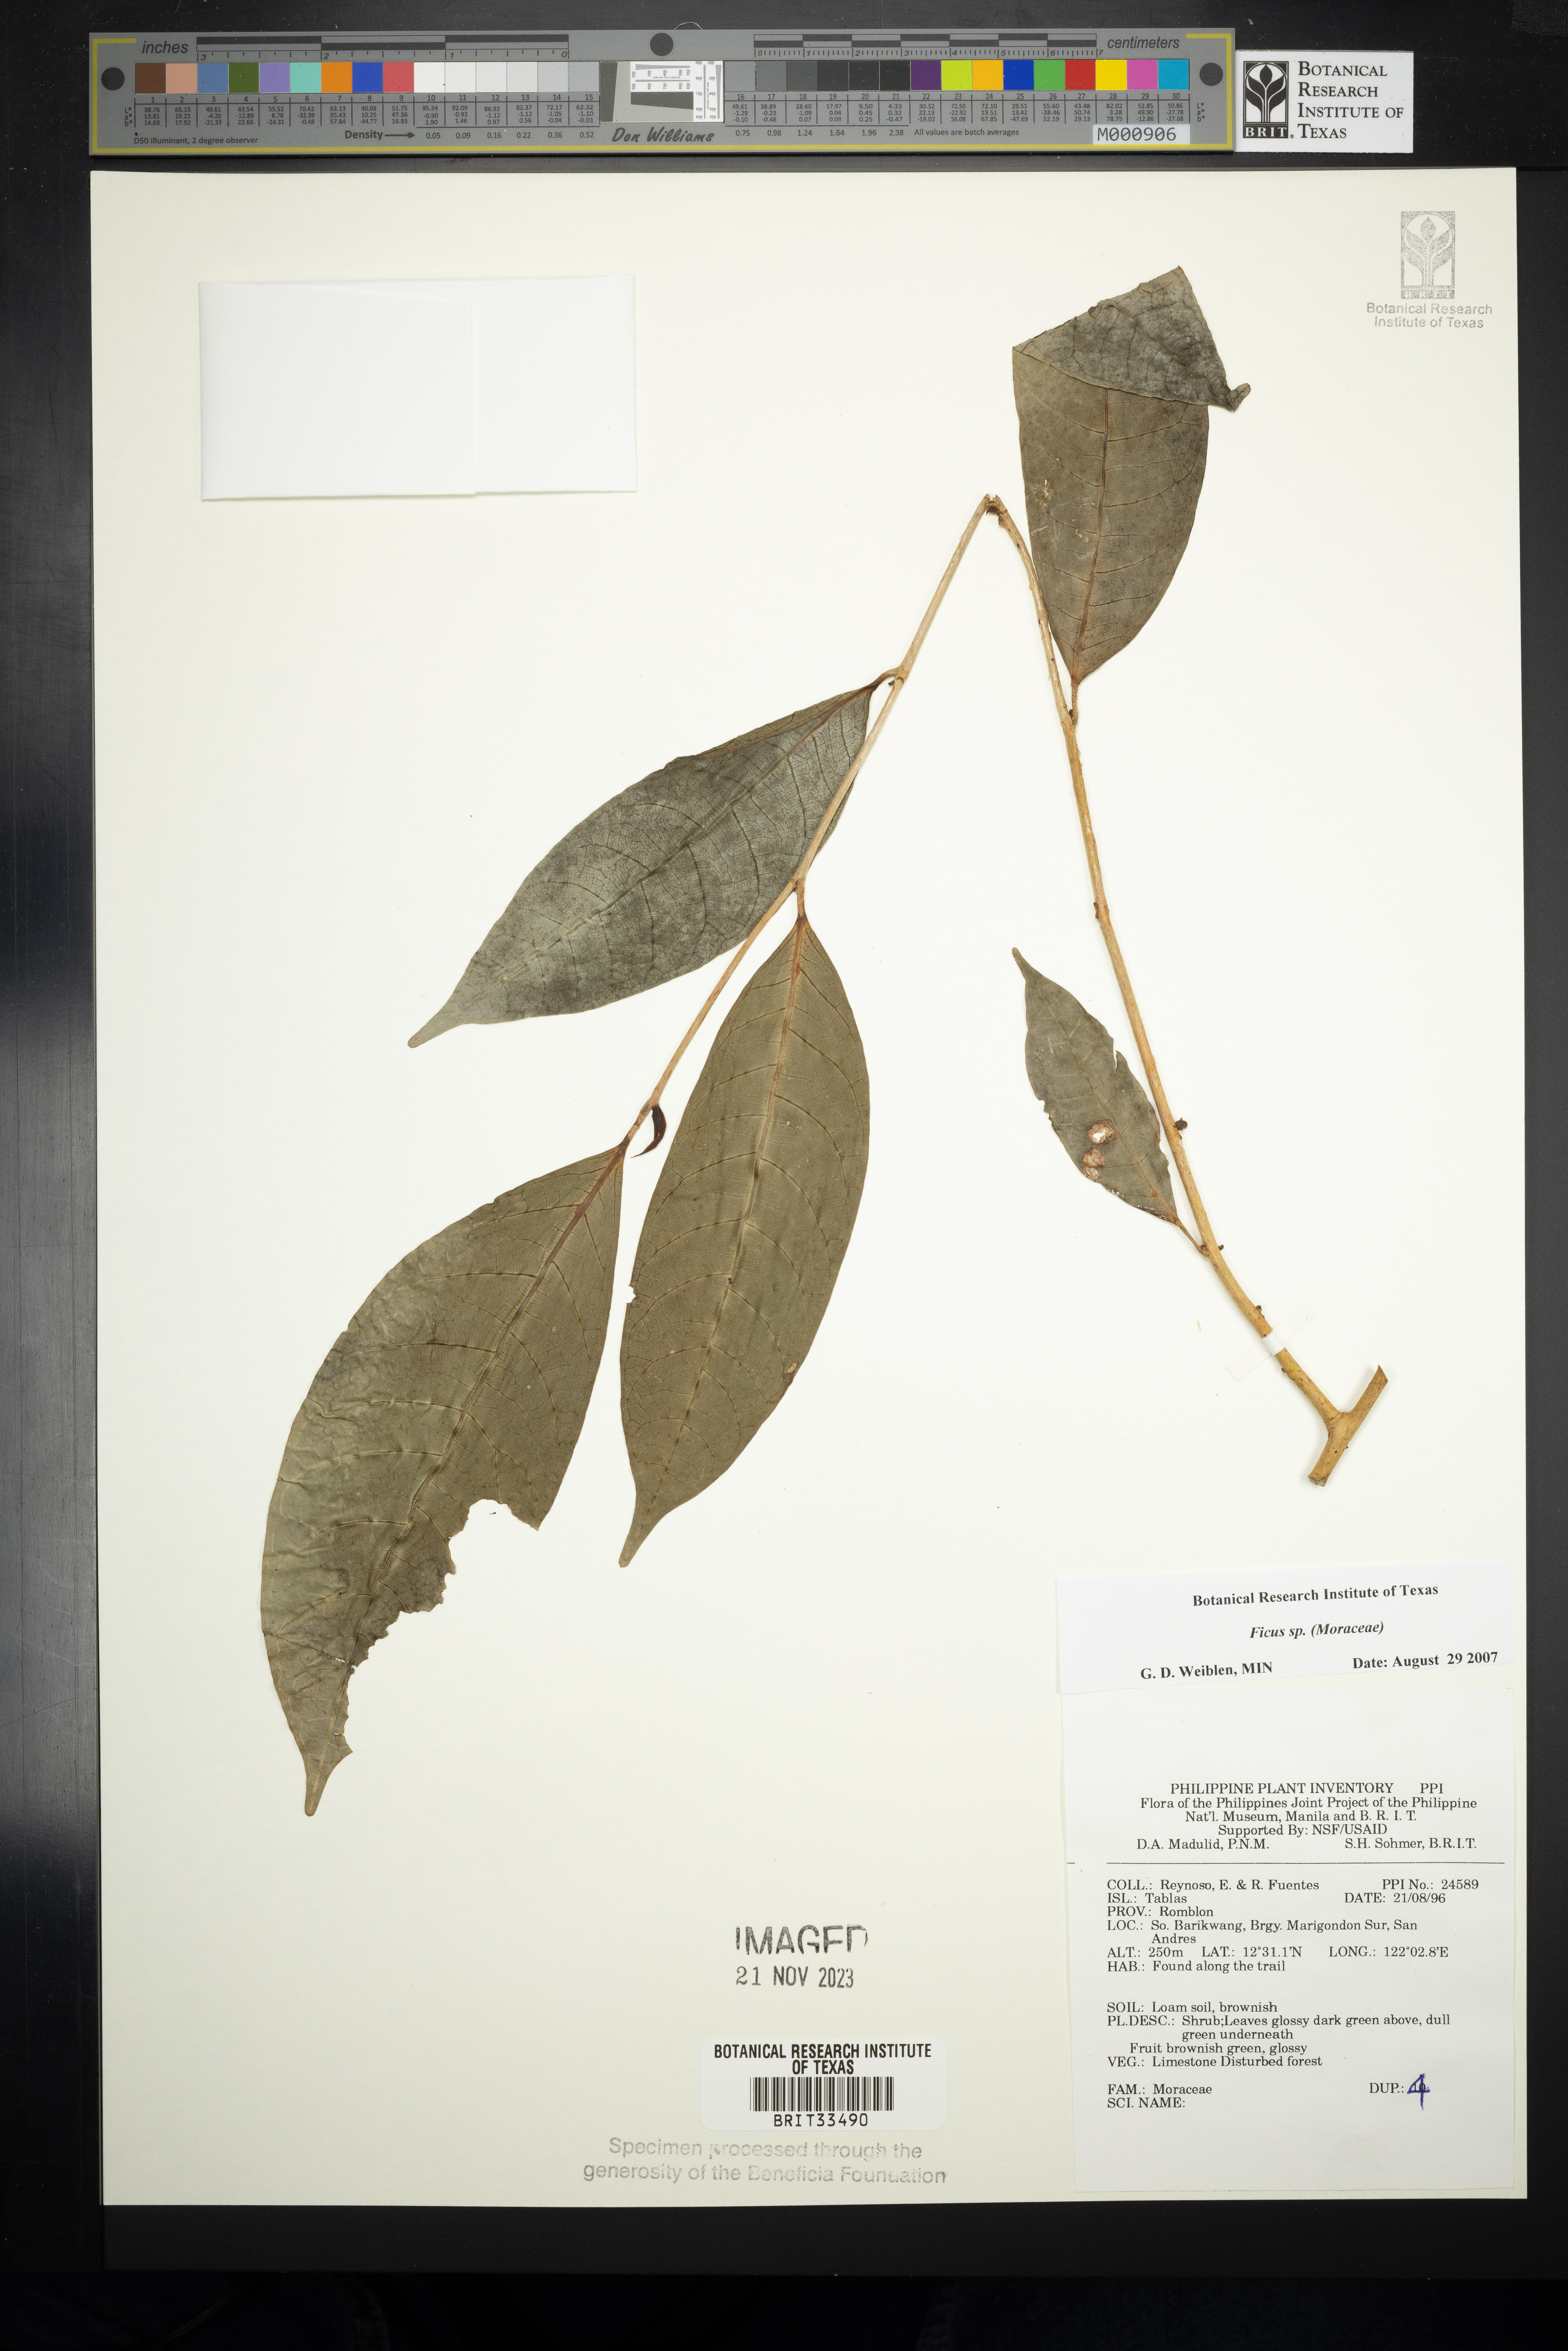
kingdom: Plantae
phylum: Tracheophyta
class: Magnoliopsida
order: Rosales
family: Moraceae
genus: Ficus
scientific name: Ficus
